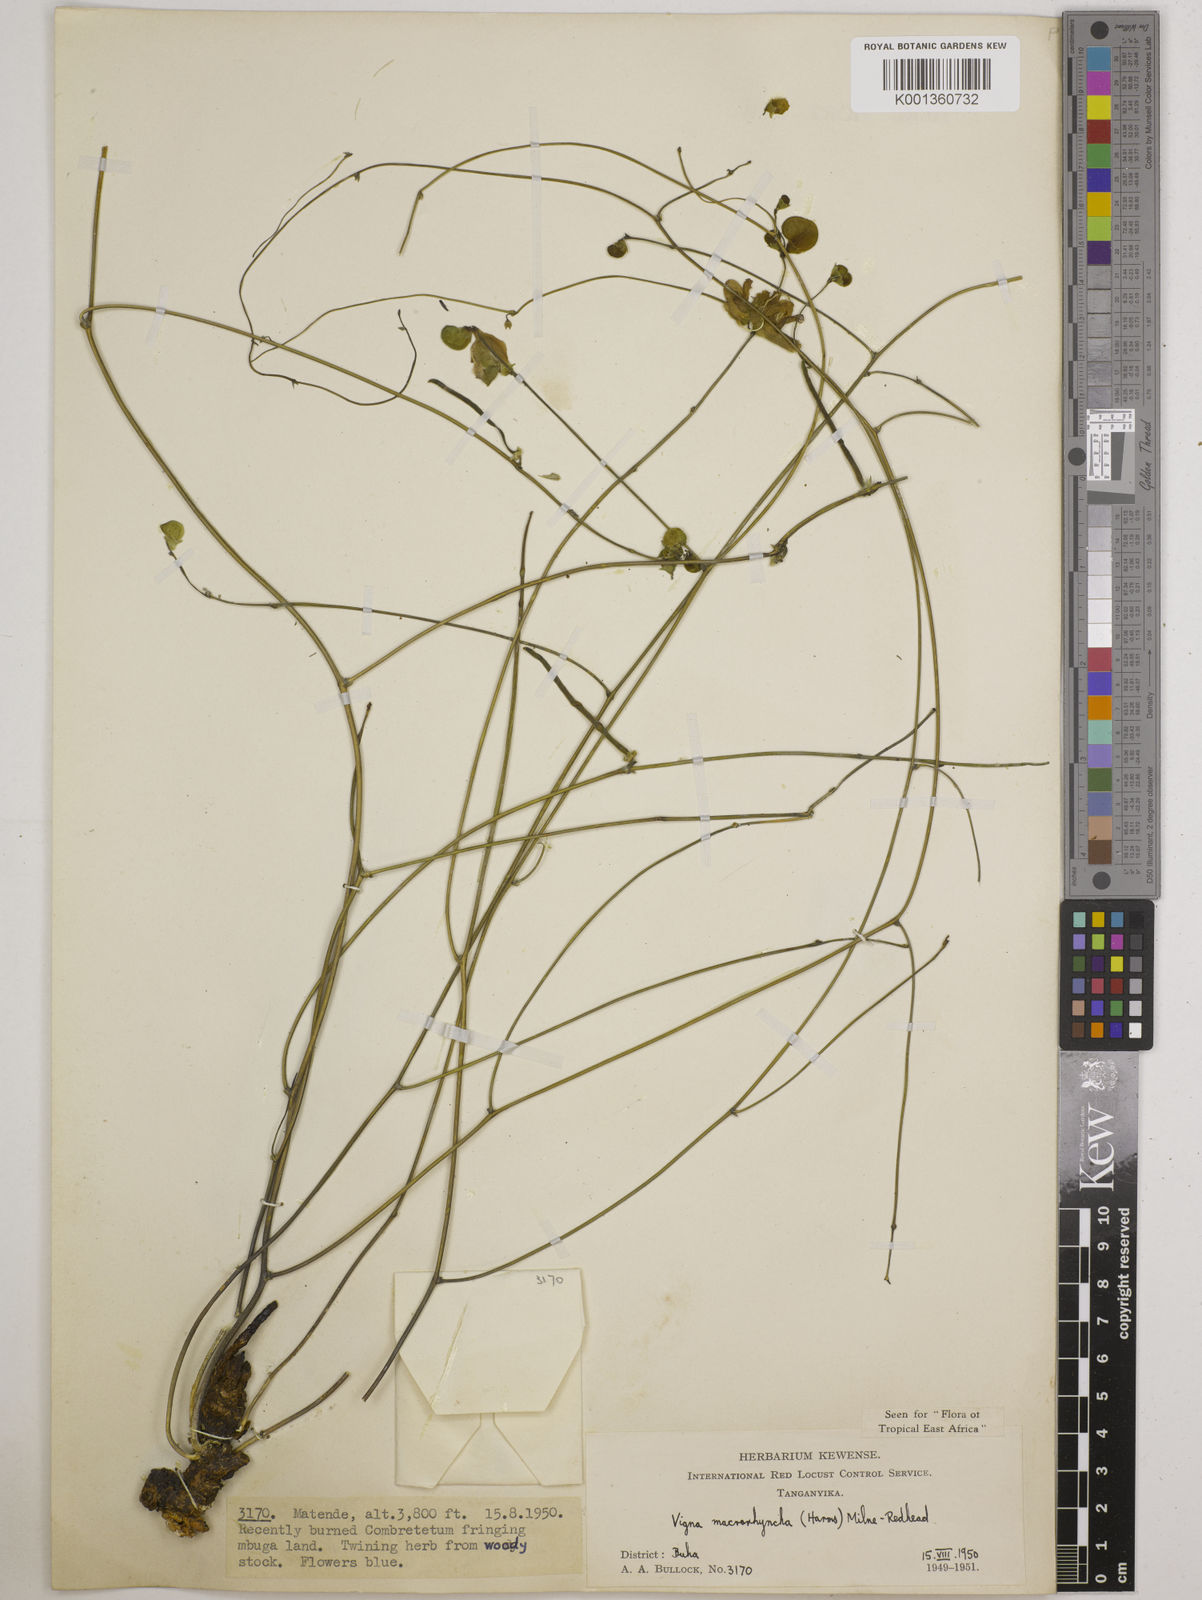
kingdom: Plantae
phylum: Tracheophyta
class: Magnoliopsida
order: Fabales
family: Fabaceae
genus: Wajira
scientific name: Wajira grahamiana
